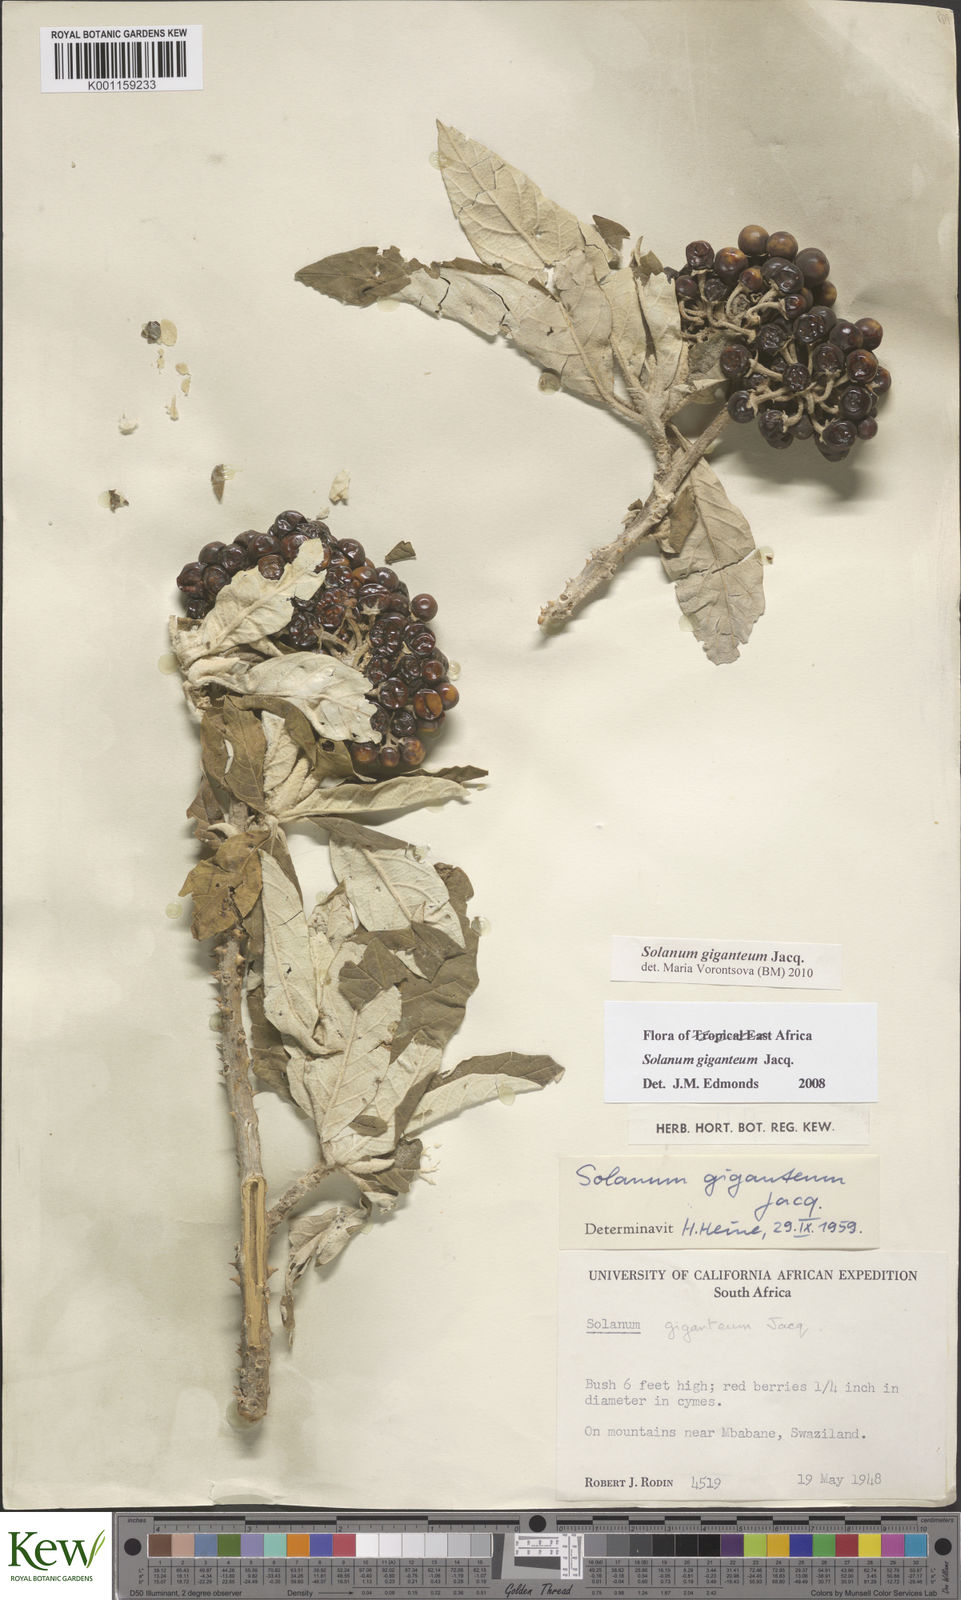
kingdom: Plantae
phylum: Tracheophyta
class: Magnoliopsida
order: Solanales
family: Solanaceae
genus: Solanum
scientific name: Solanum giganteum
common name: Healing-leaf-tree
